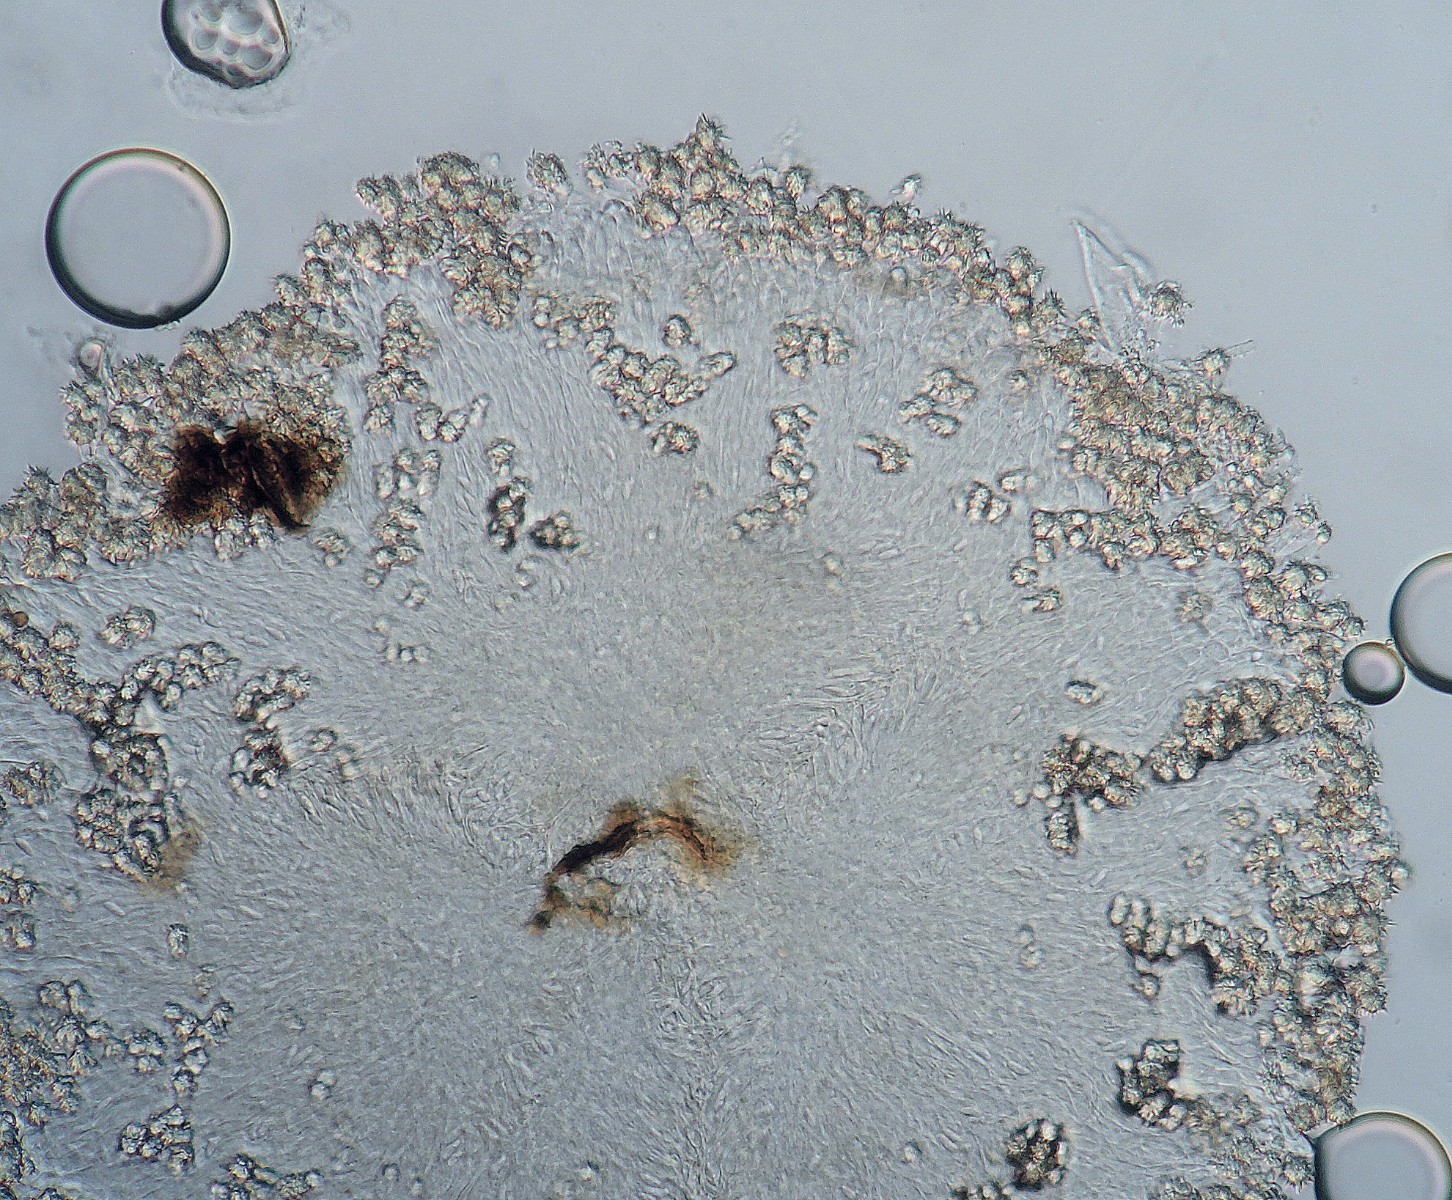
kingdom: Fungi
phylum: Ascomycota
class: Leotiomycetes
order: Helotiales
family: Hyaloscyphaceae
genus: Protounguicularia
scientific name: Protounguicularia vandae
